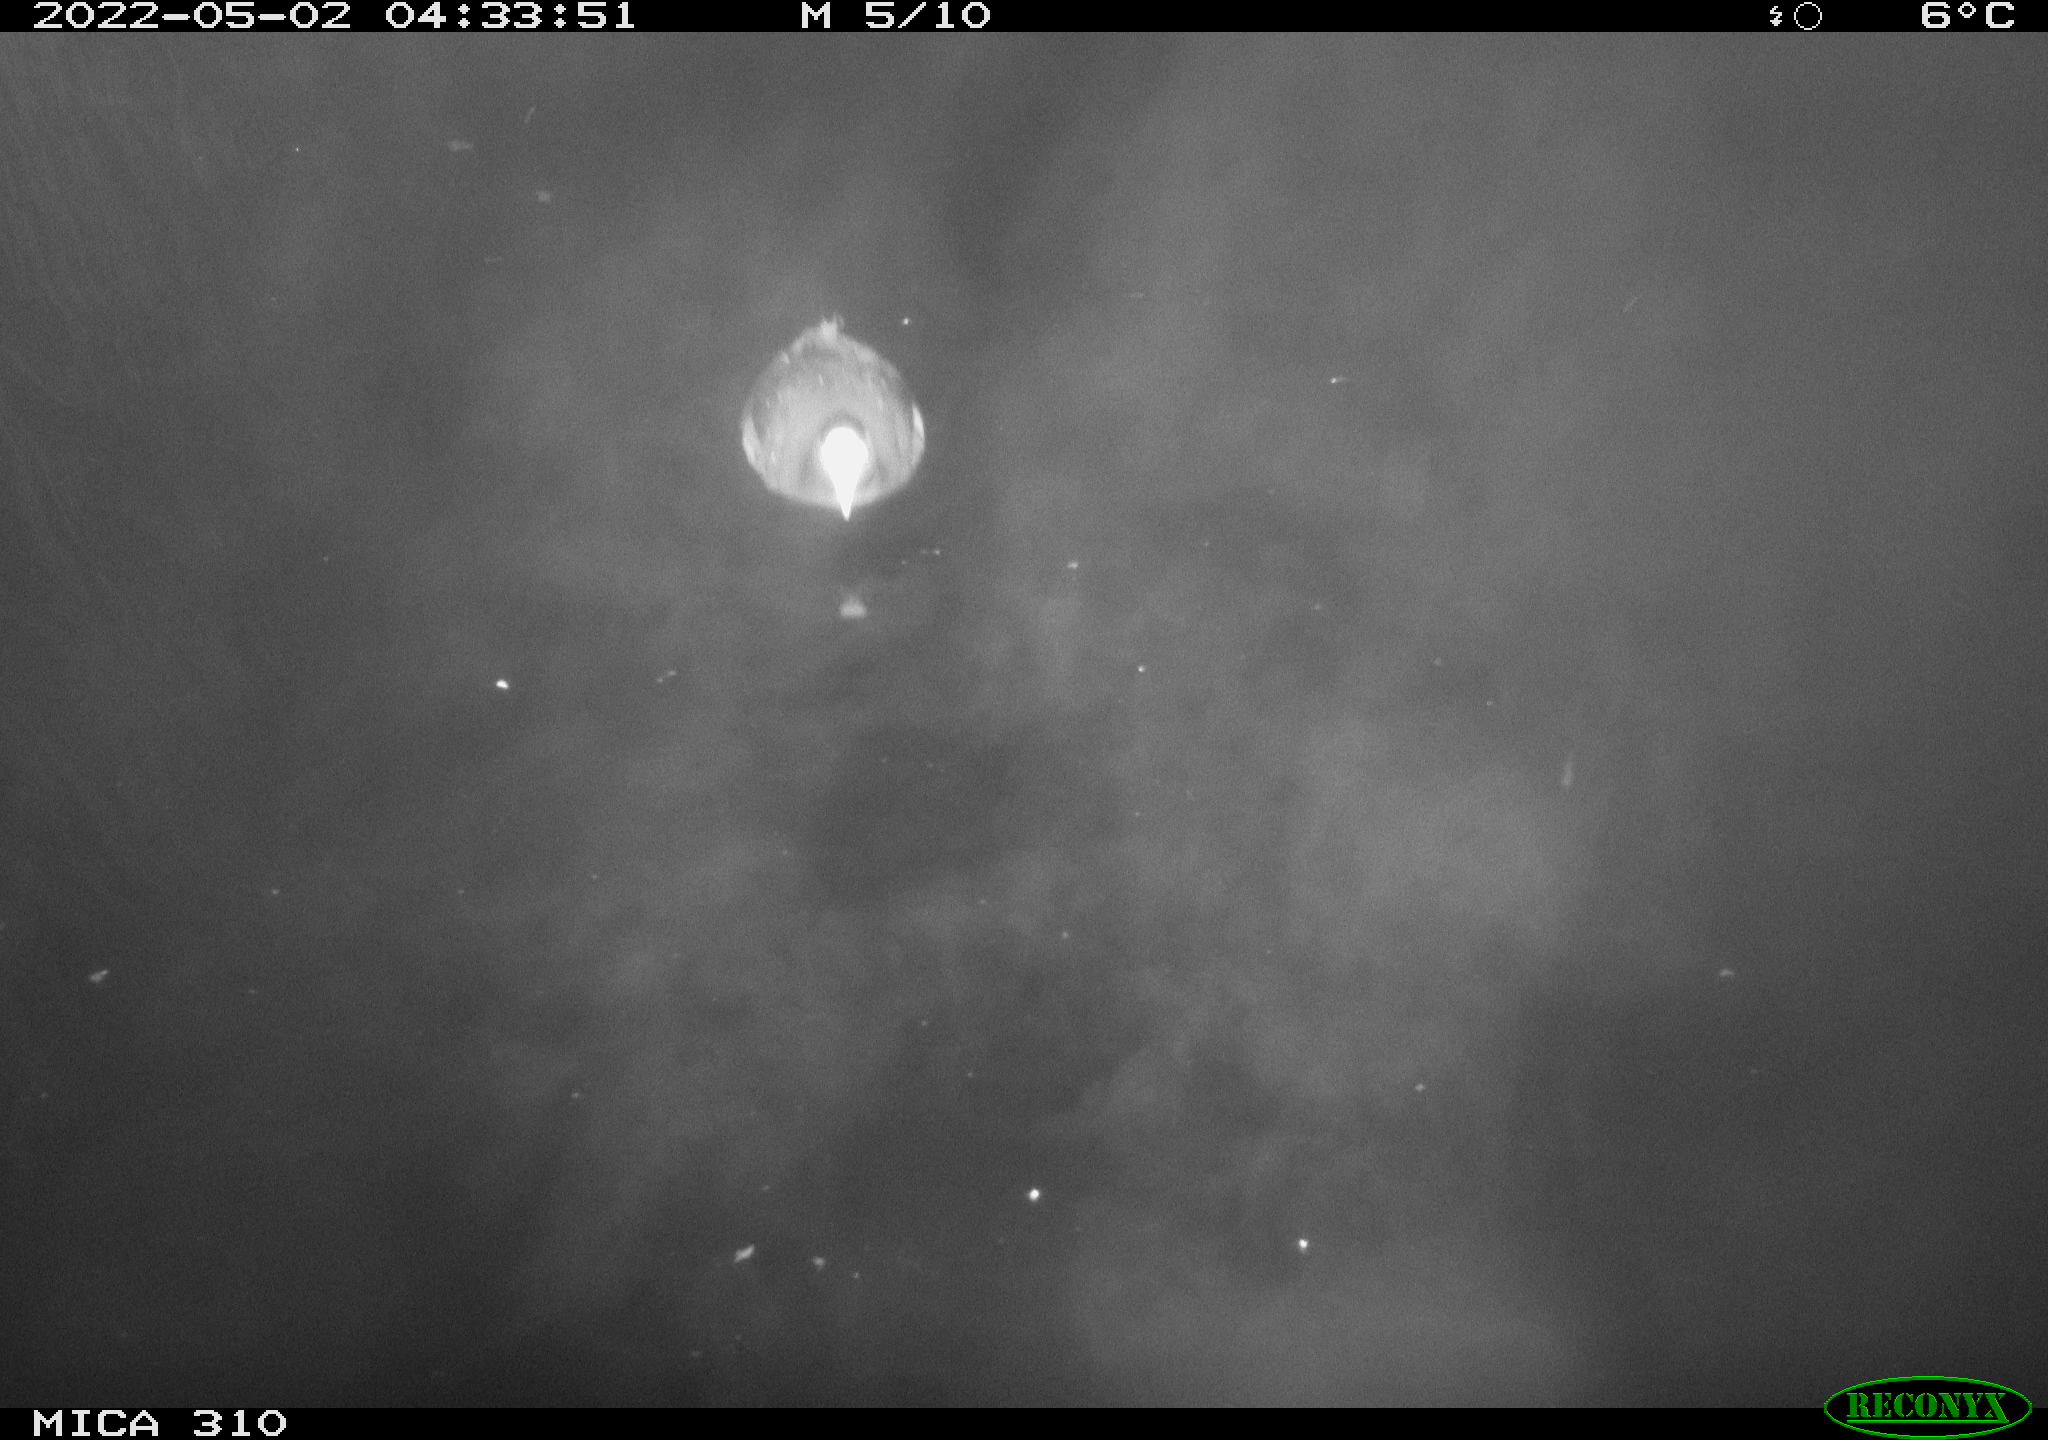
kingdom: Animalia
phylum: Chordata
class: Aves
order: Gruiformes
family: Rallidae
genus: Gallinula
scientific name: Gallinula chloropus
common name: Common moorhen
